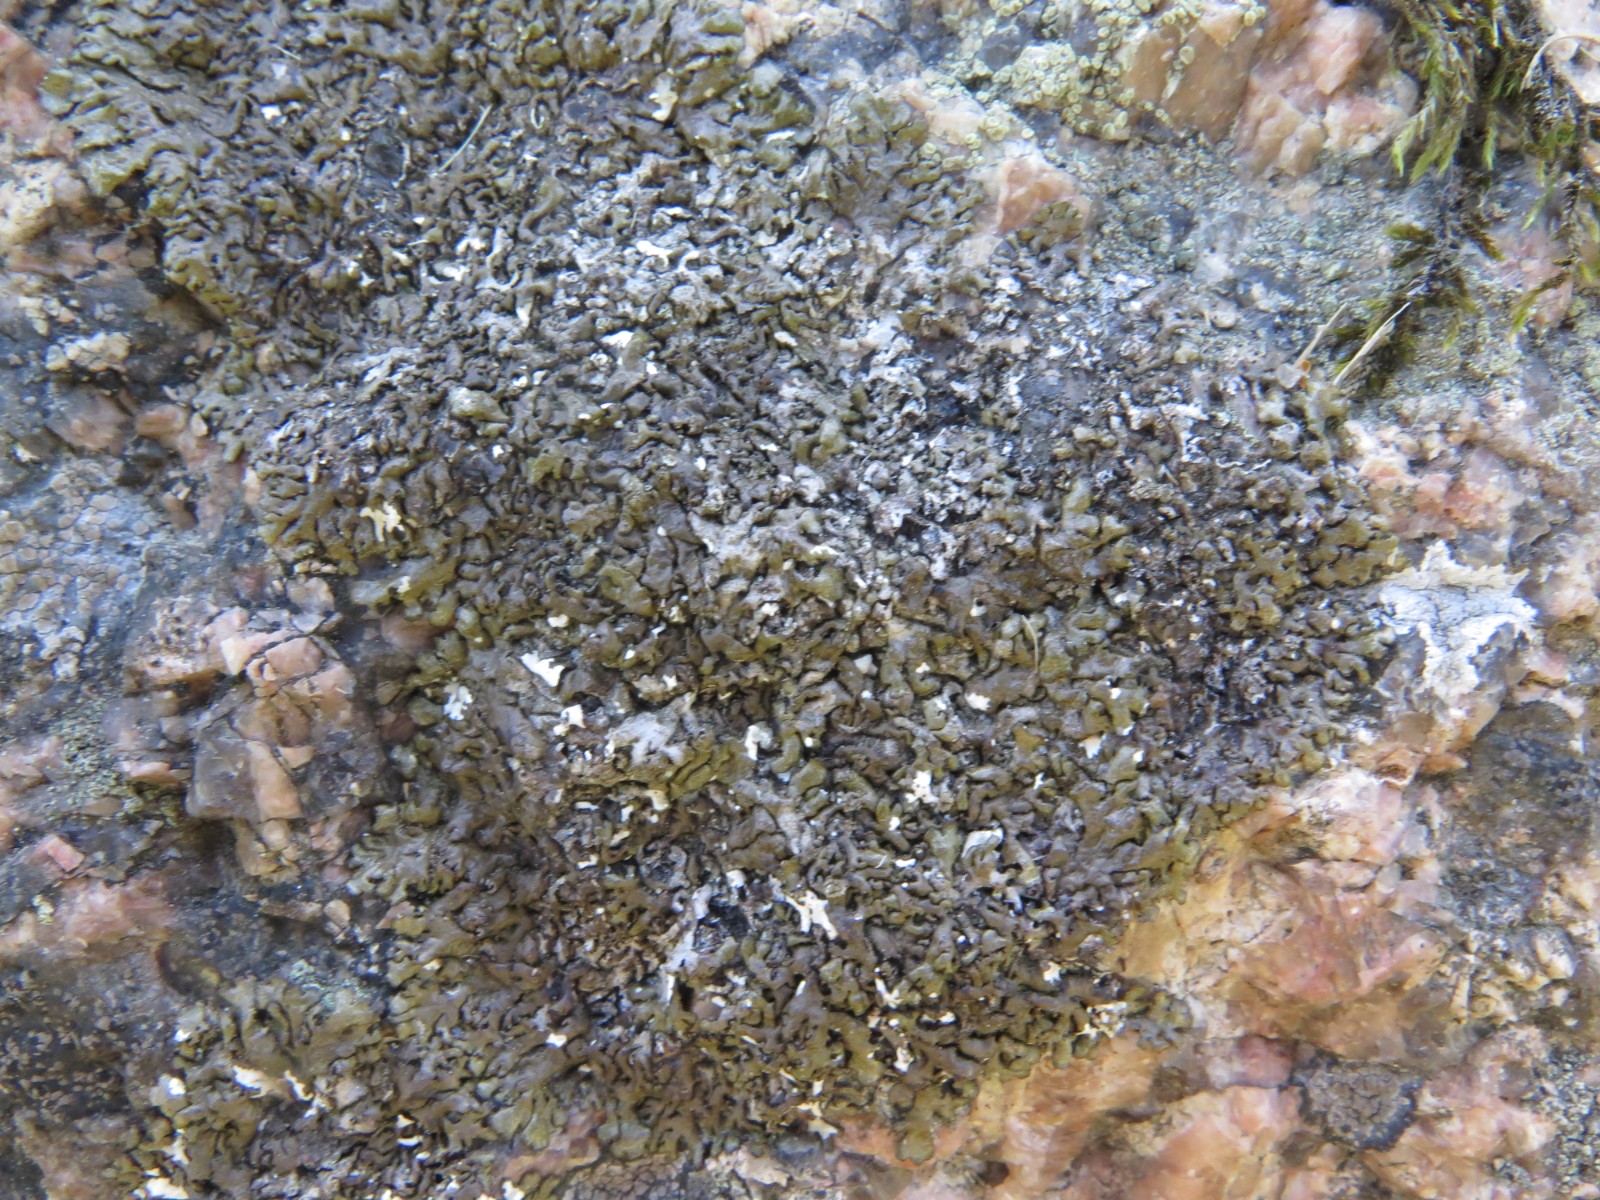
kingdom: Fungi
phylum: Ascomycota
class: Lecanoromycetes
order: Lecanorales
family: Parmeliaceae
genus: Xanthoparmelia
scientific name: Xanthoparmelia loxodes
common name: knudret skållav
